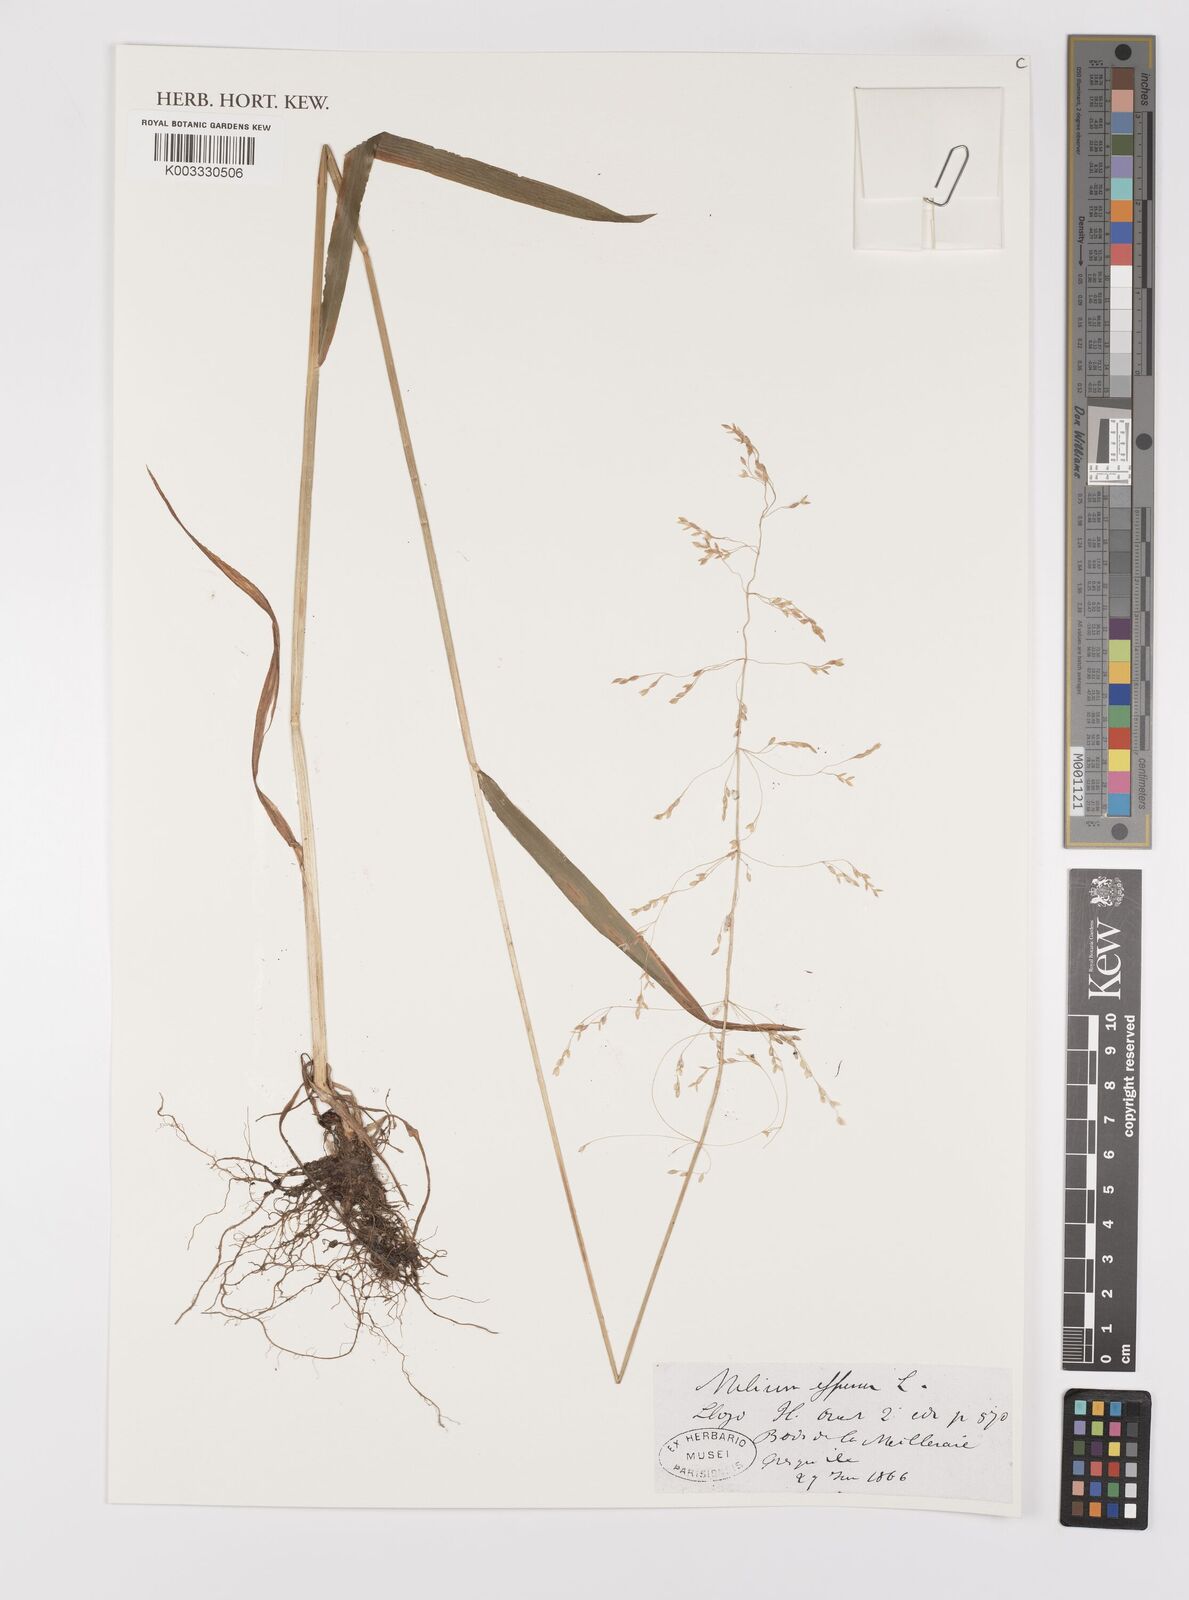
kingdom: Plantae
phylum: Tracheophyta
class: Liliopsida
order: Poales
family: Poaceae
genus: Milium
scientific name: Milium
